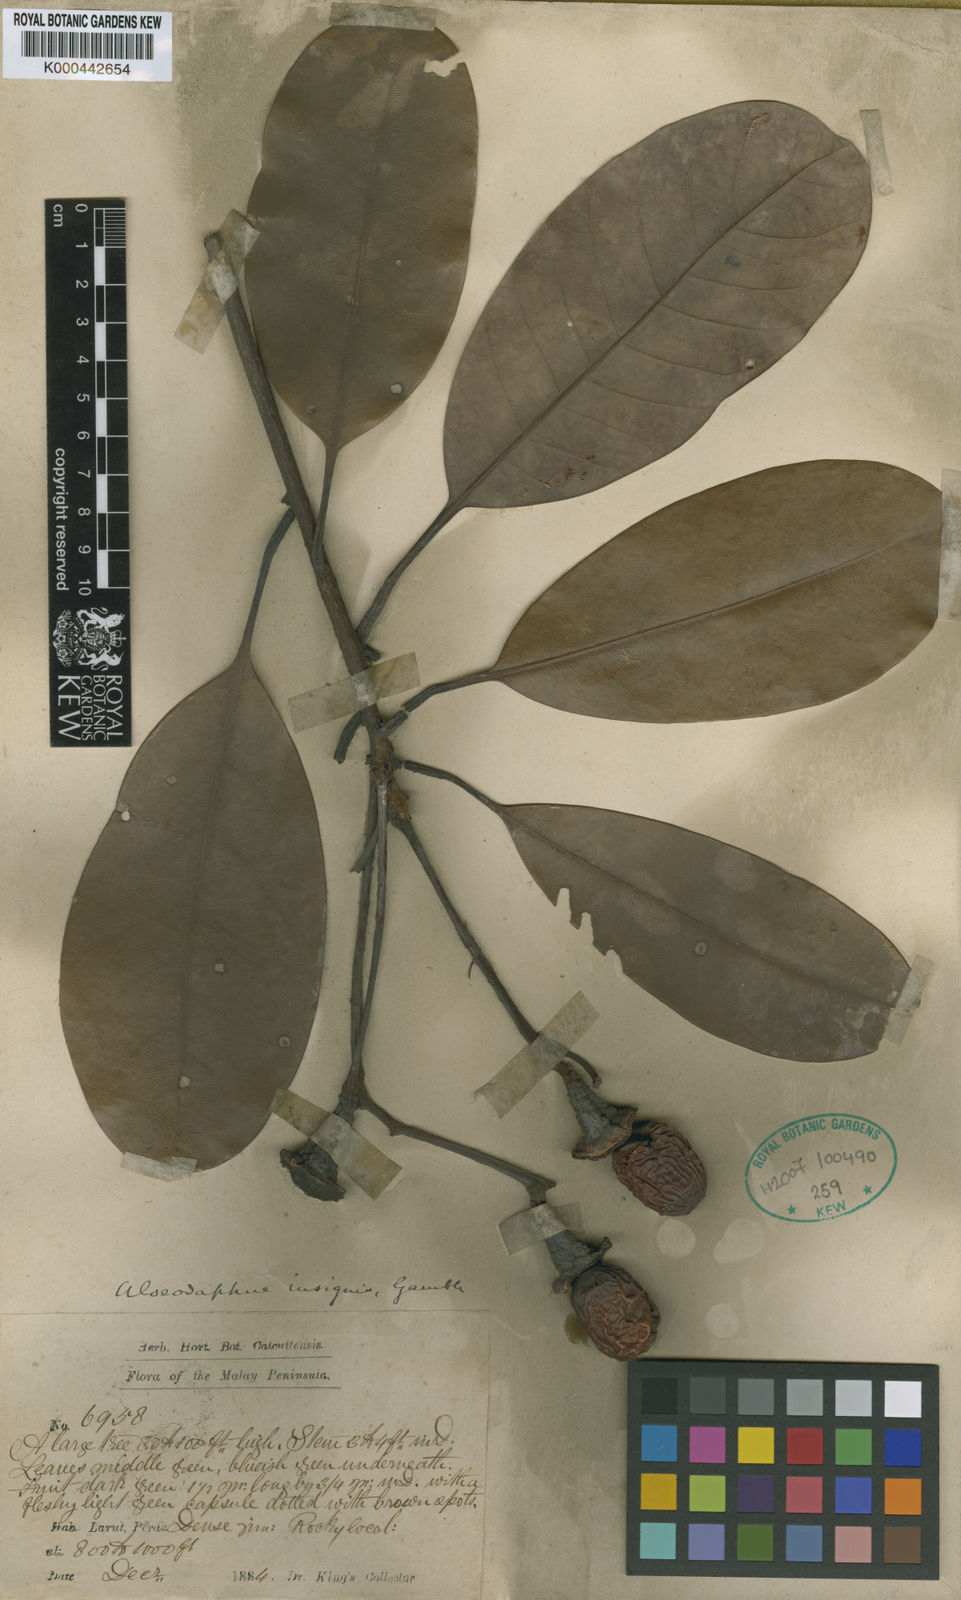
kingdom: Plantae
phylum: Tracheophyta
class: Magnoliopsida
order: Laurales
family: Lauraceae
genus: Alseodaphne
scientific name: Alseodaphne insignis
